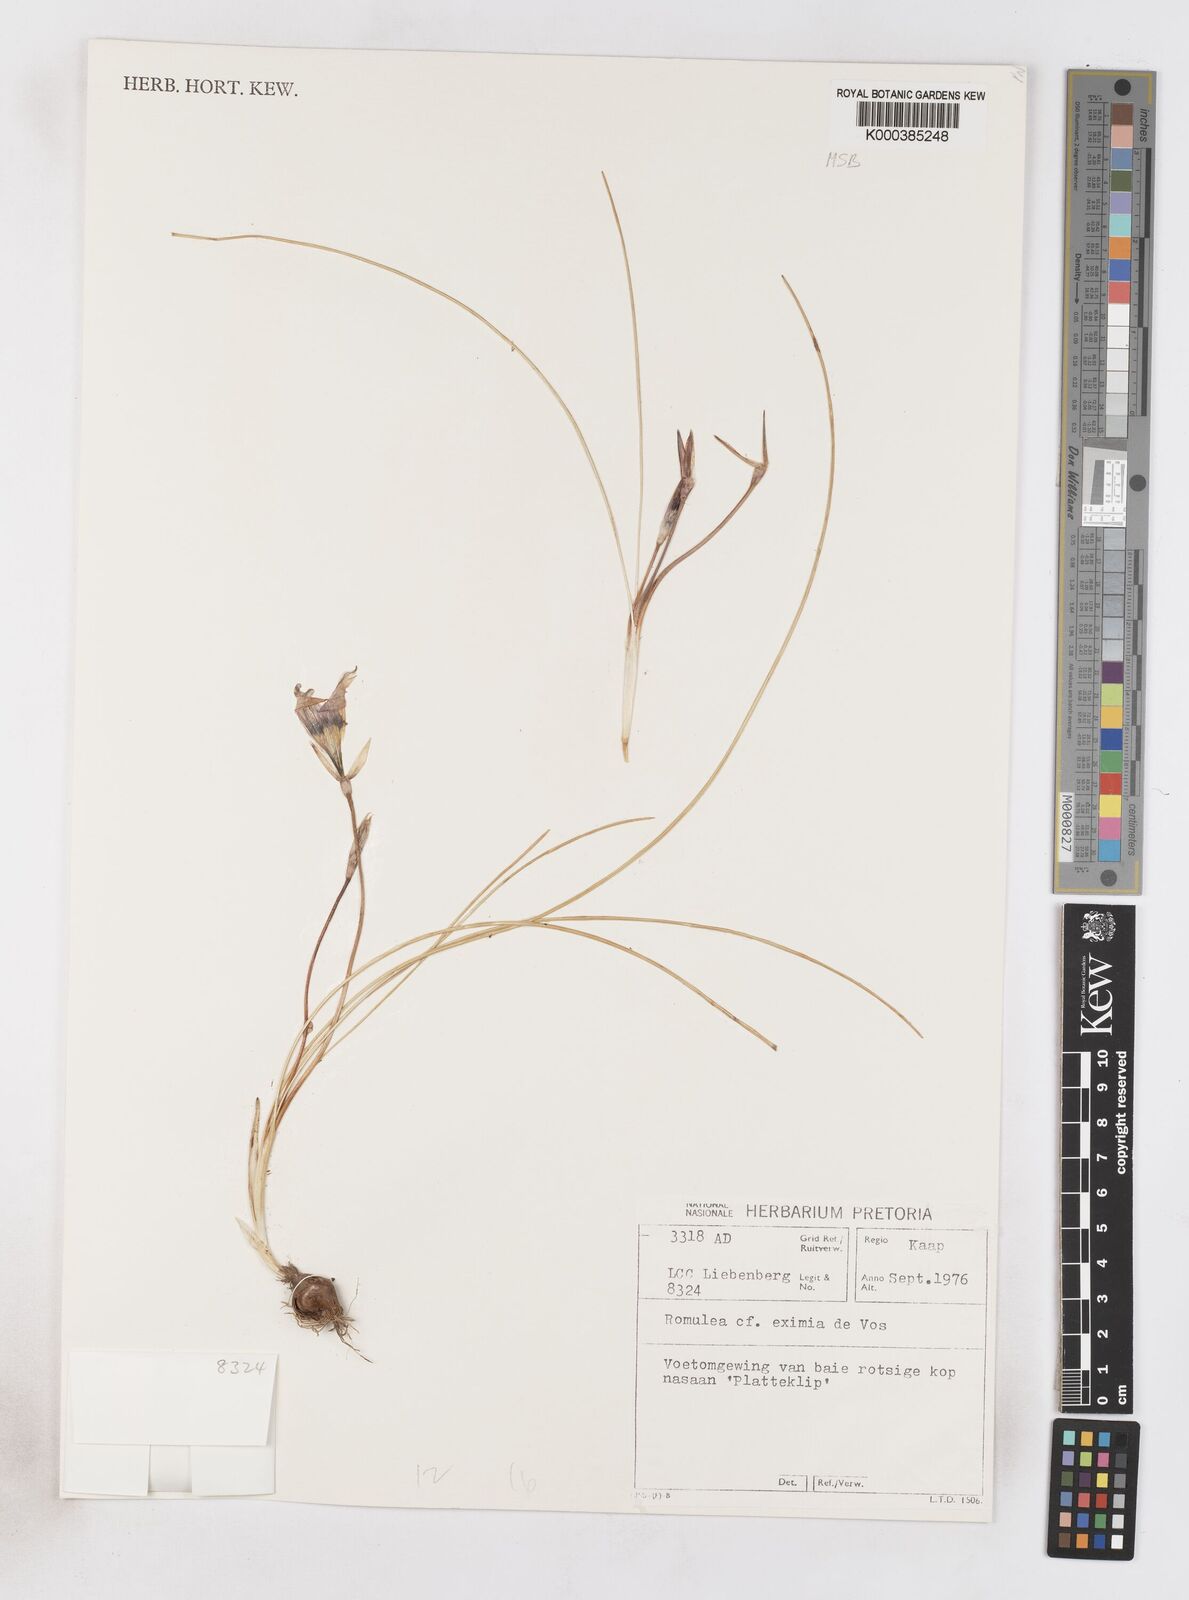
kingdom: Plantae
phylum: Tracheophyta
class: Liliopsida
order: Asparagales
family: Iridaceae
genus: Romulea
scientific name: Romulea eximia
